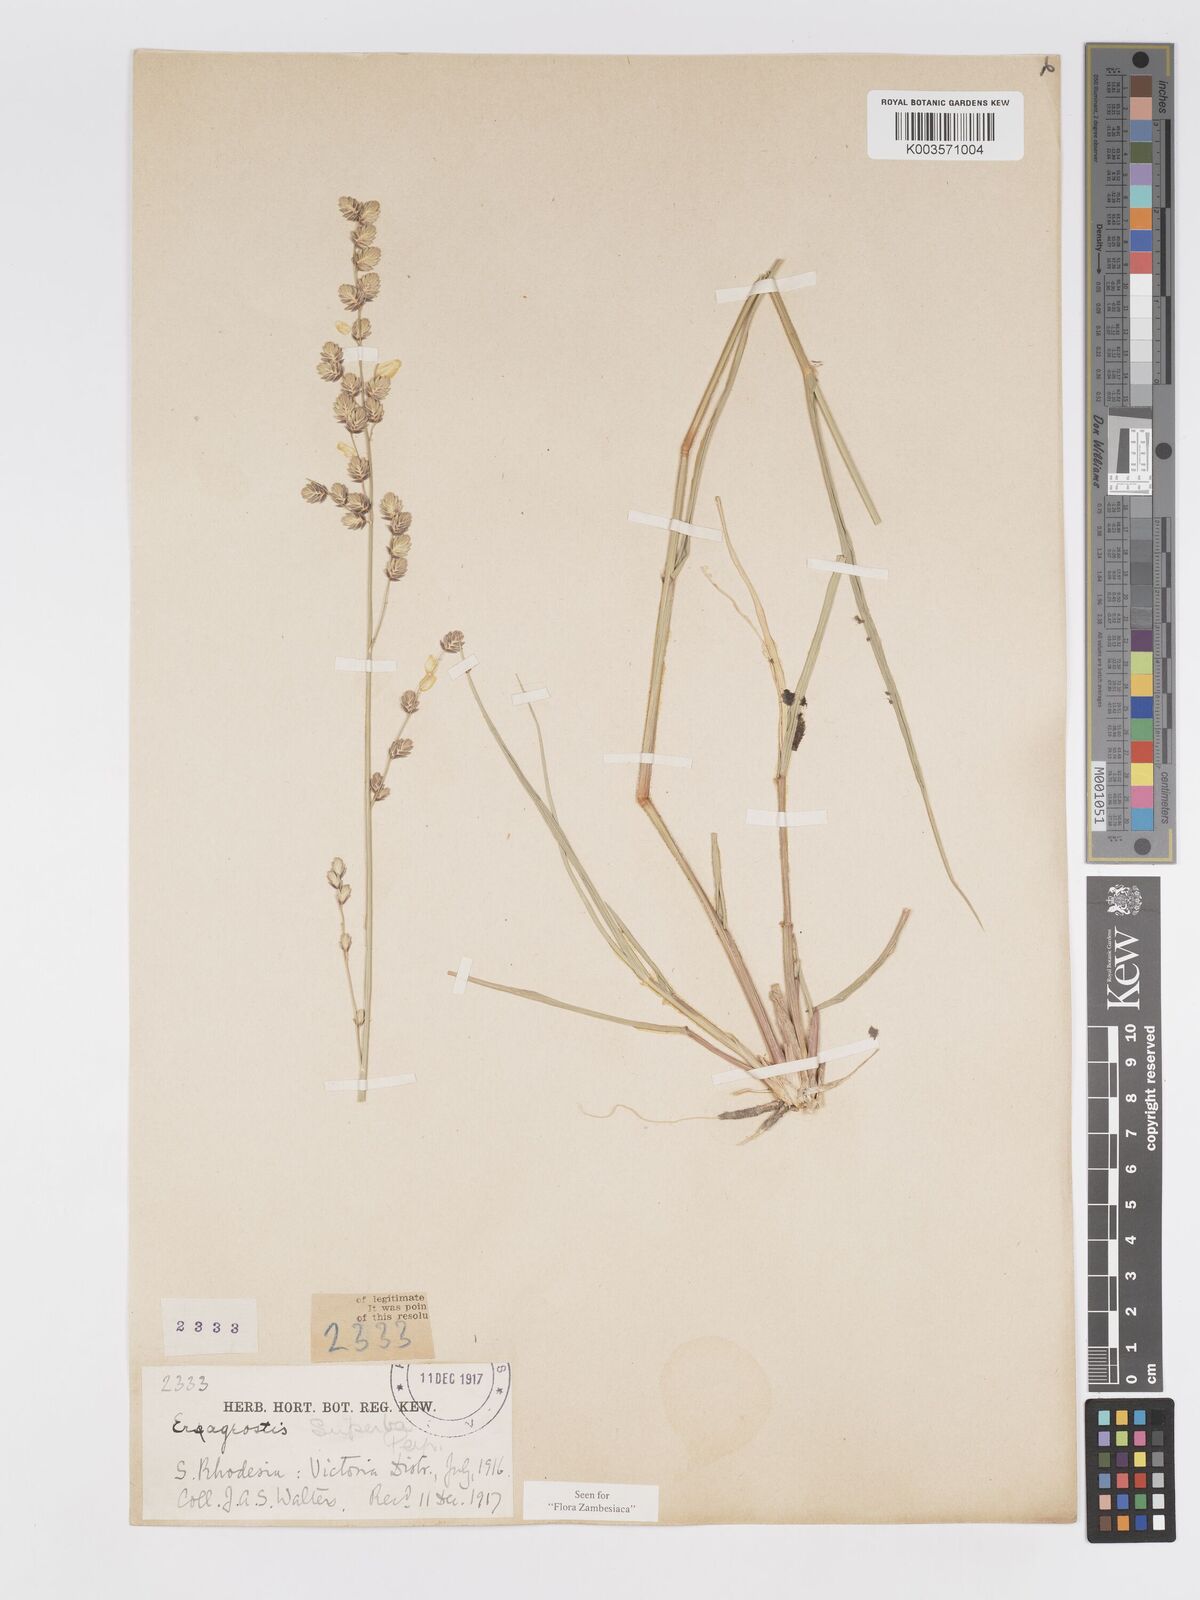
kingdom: Plantae
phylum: Tracheophyta
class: Liliopsida
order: Poales
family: Poaceae
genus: Eragrostis
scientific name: Eragrostis superba
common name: Wilman lovegrass
